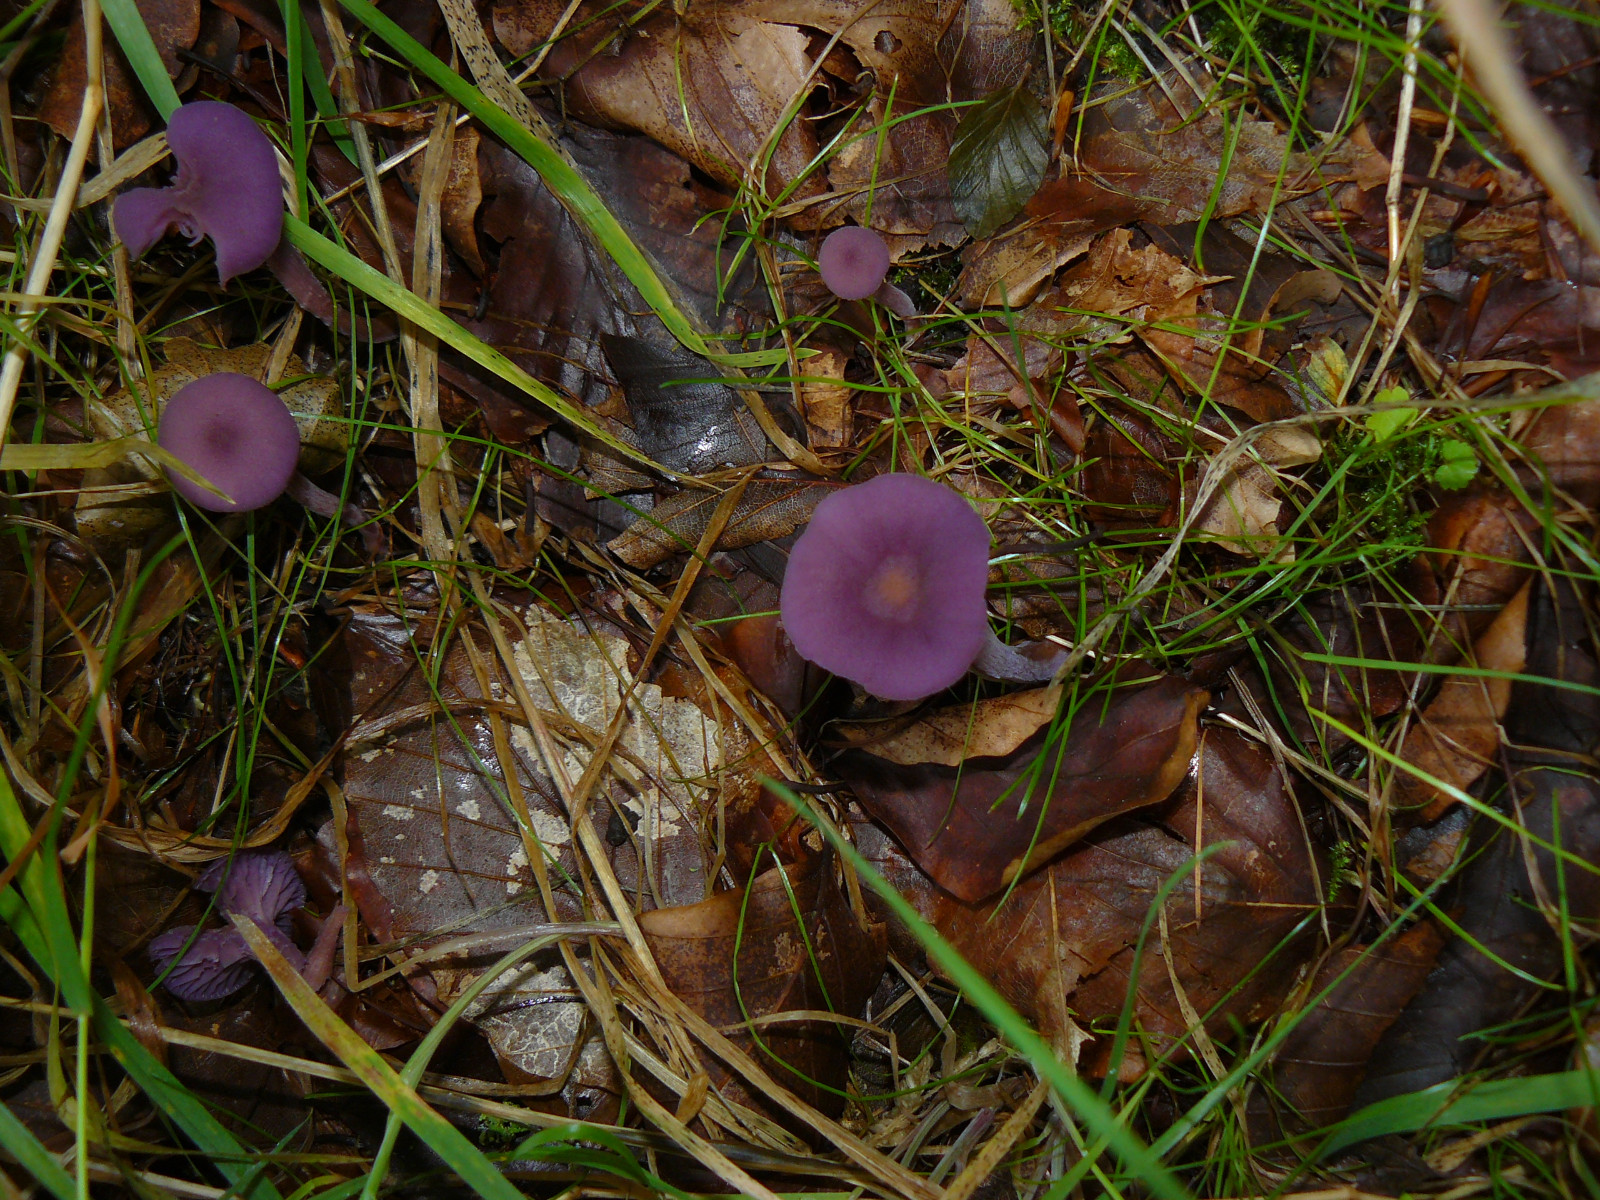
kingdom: Fungi
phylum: Basidiomycota
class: Agaricomycetes
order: Agaricales
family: Hydnangiaceae
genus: Laccaria
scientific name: Laccaria amethystina
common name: violet ametysthat
